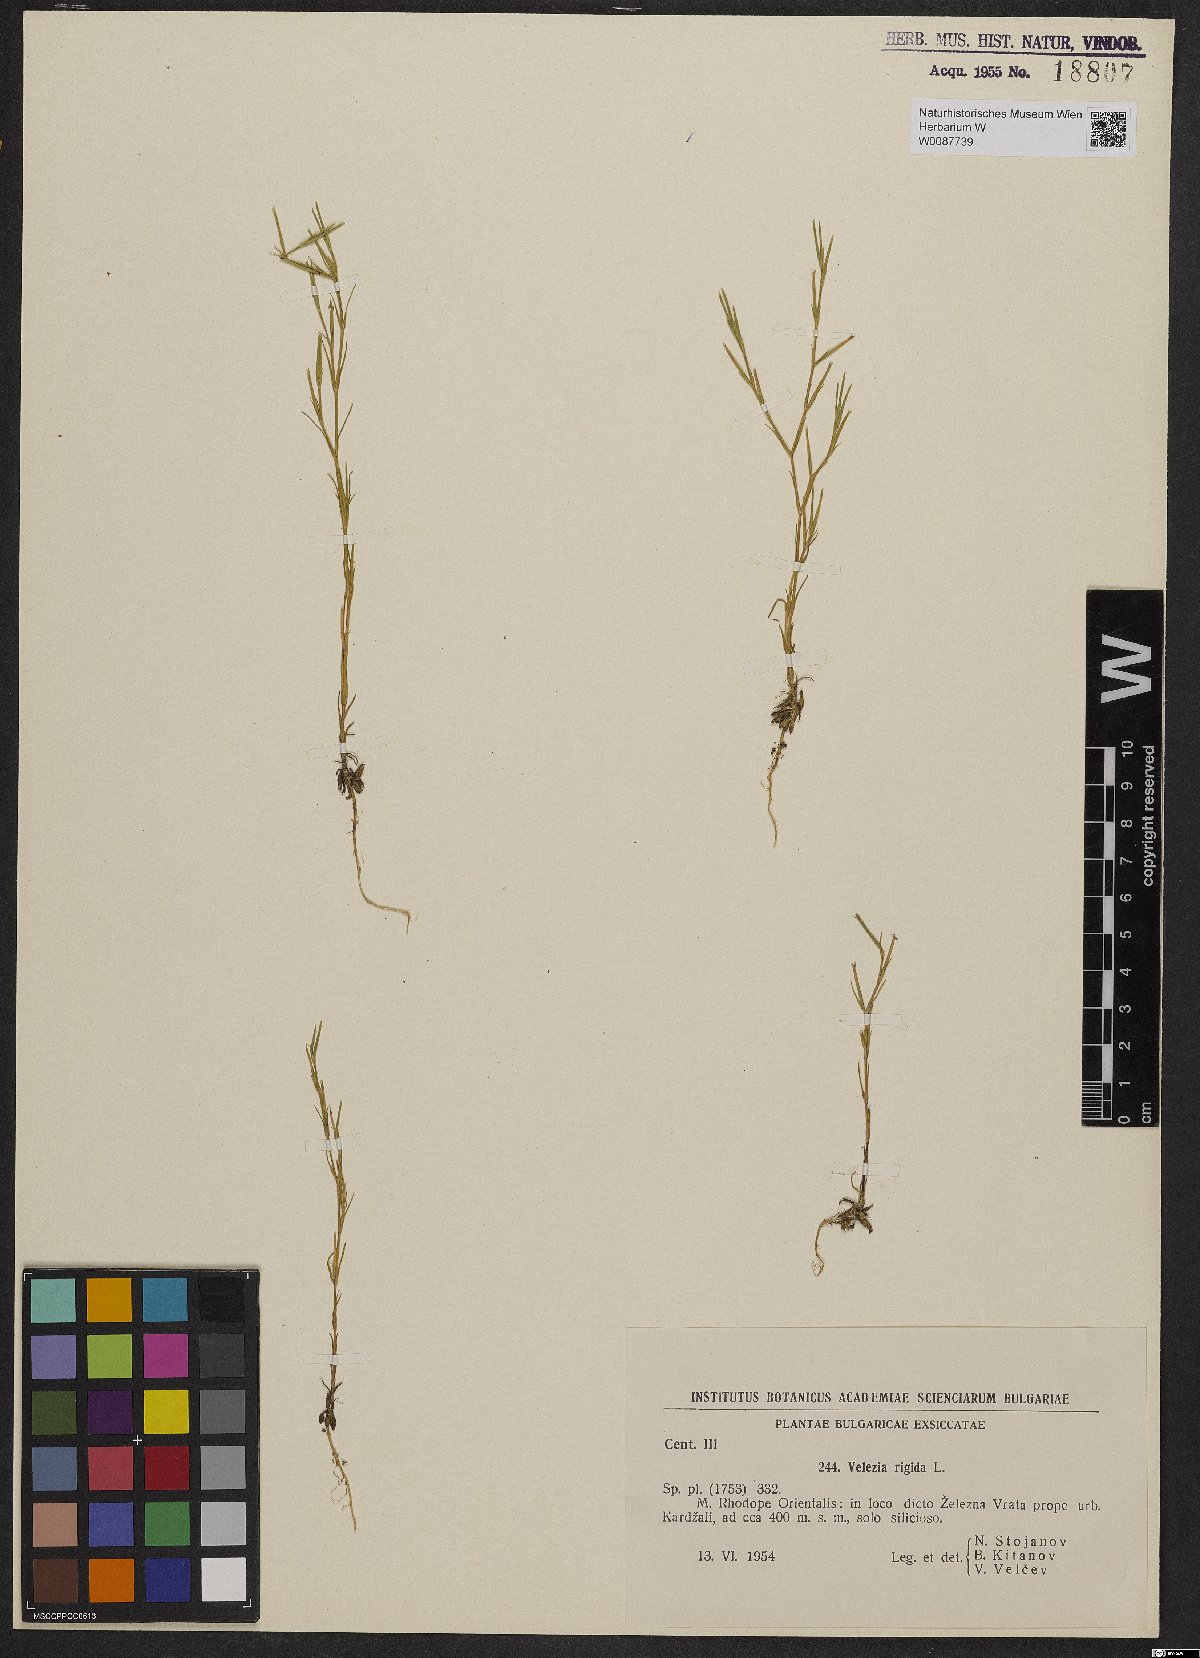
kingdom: Plantae
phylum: Tracheophyta
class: Magnoliopsida
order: Caryophyllales
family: Caryophyllaceae
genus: Dianthus
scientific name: Dianthus nudiflorus
